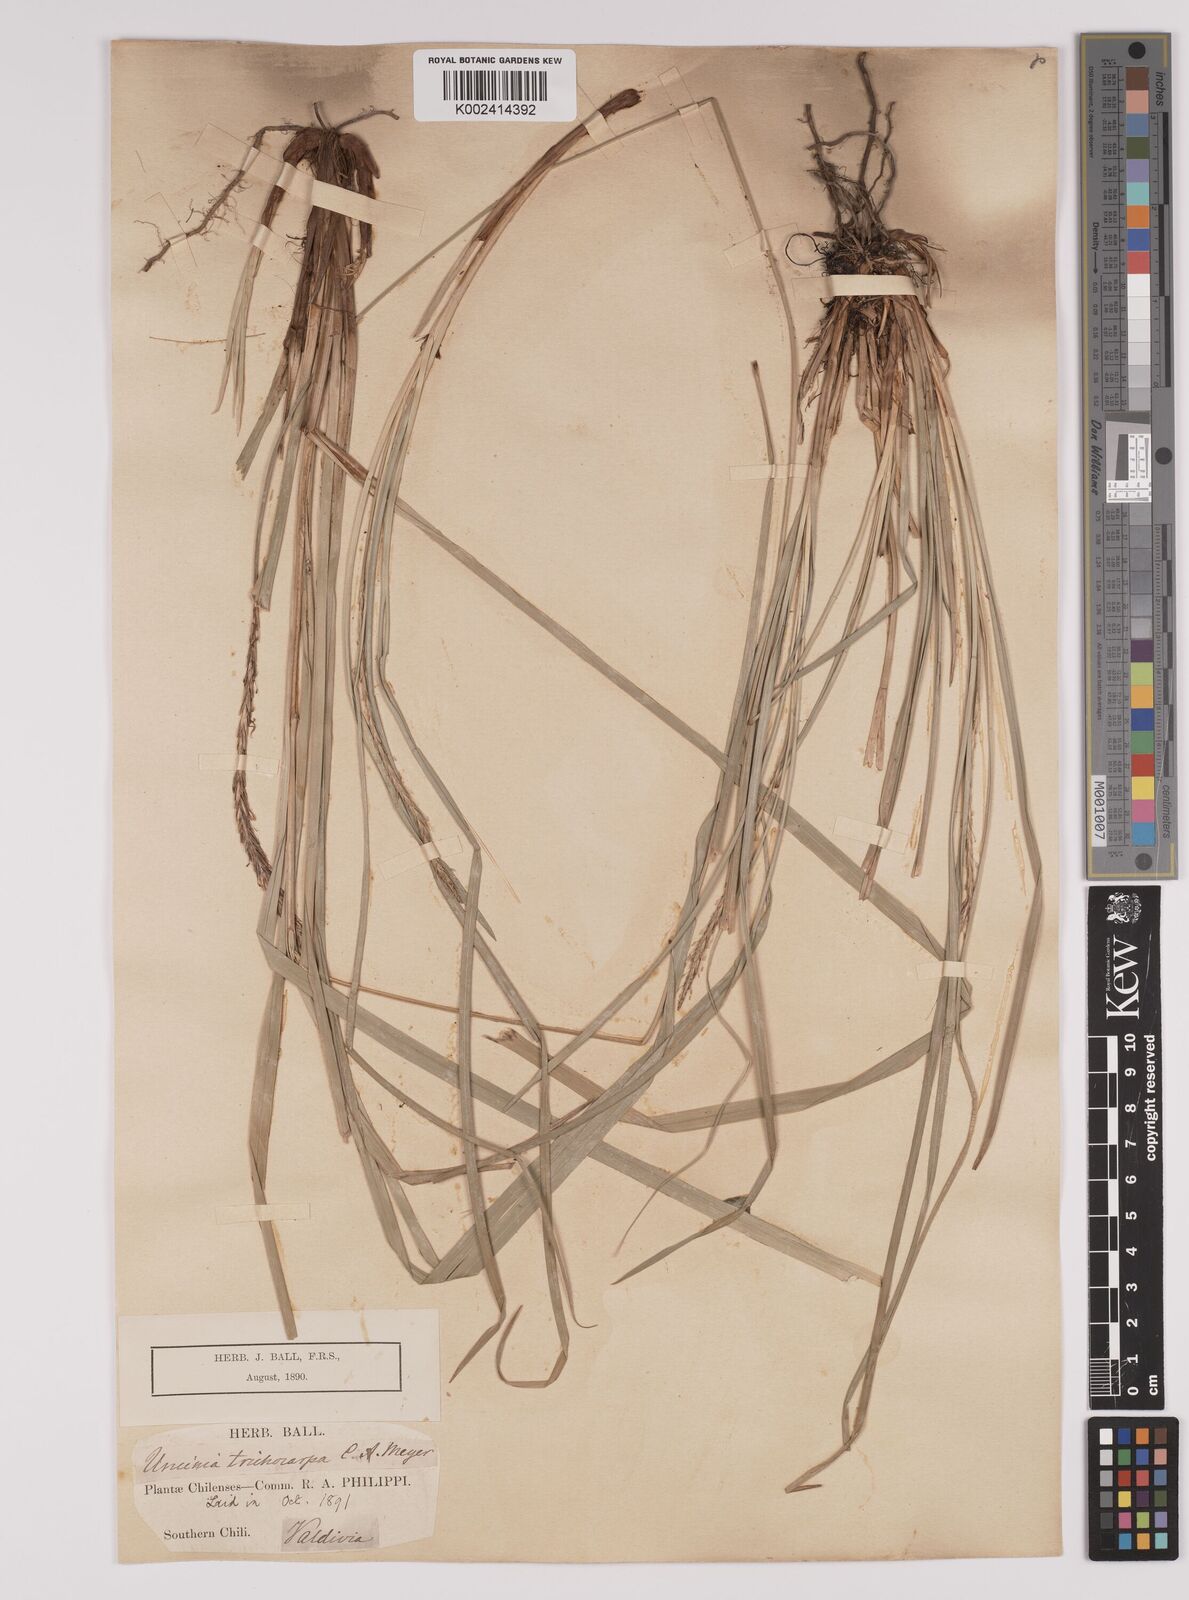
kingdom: Plantae
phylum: Tracheophyta
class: Liliopsida
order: Poales
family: Cyperaceae
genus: Carex
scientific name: Carex quinquin
